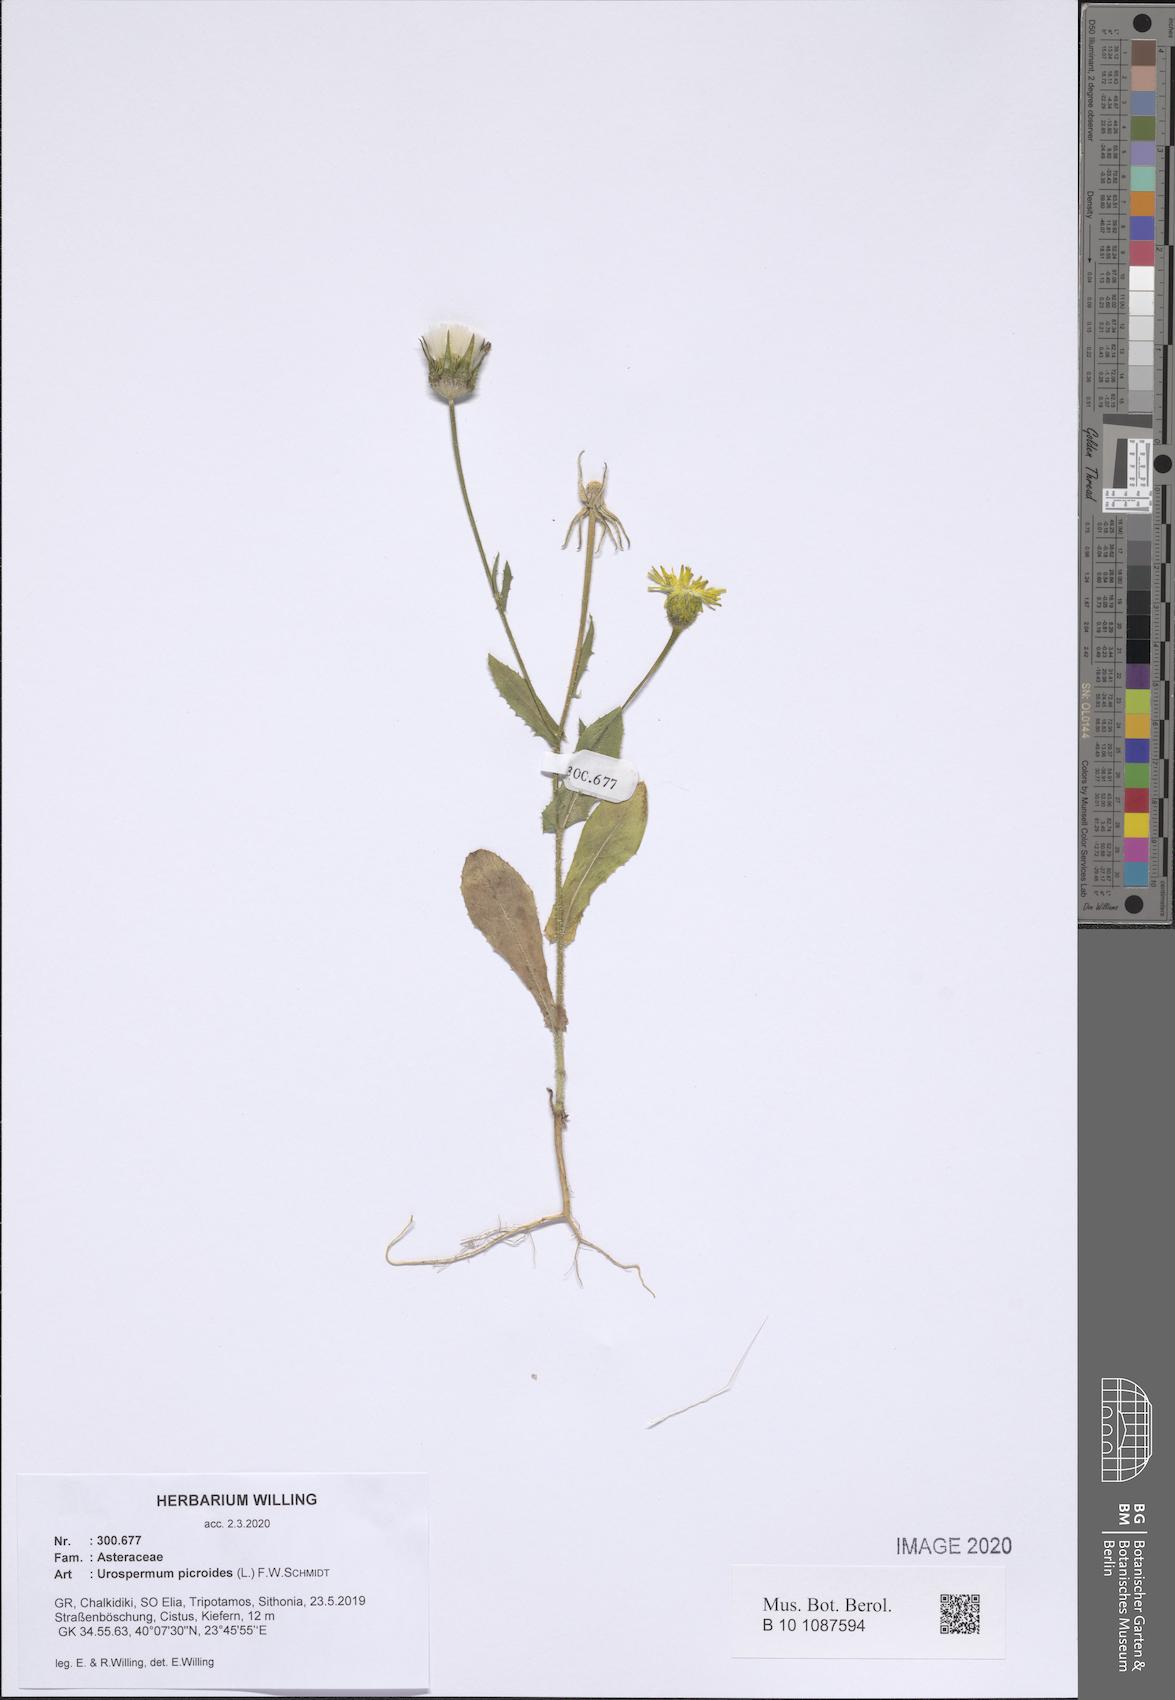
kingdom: Plantae
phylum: Tracheophyta
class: Magnoliopsida
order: Asterales
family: Asteraceae
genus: Urospermum
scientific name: Urospermum picroides
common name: False hawkbit
